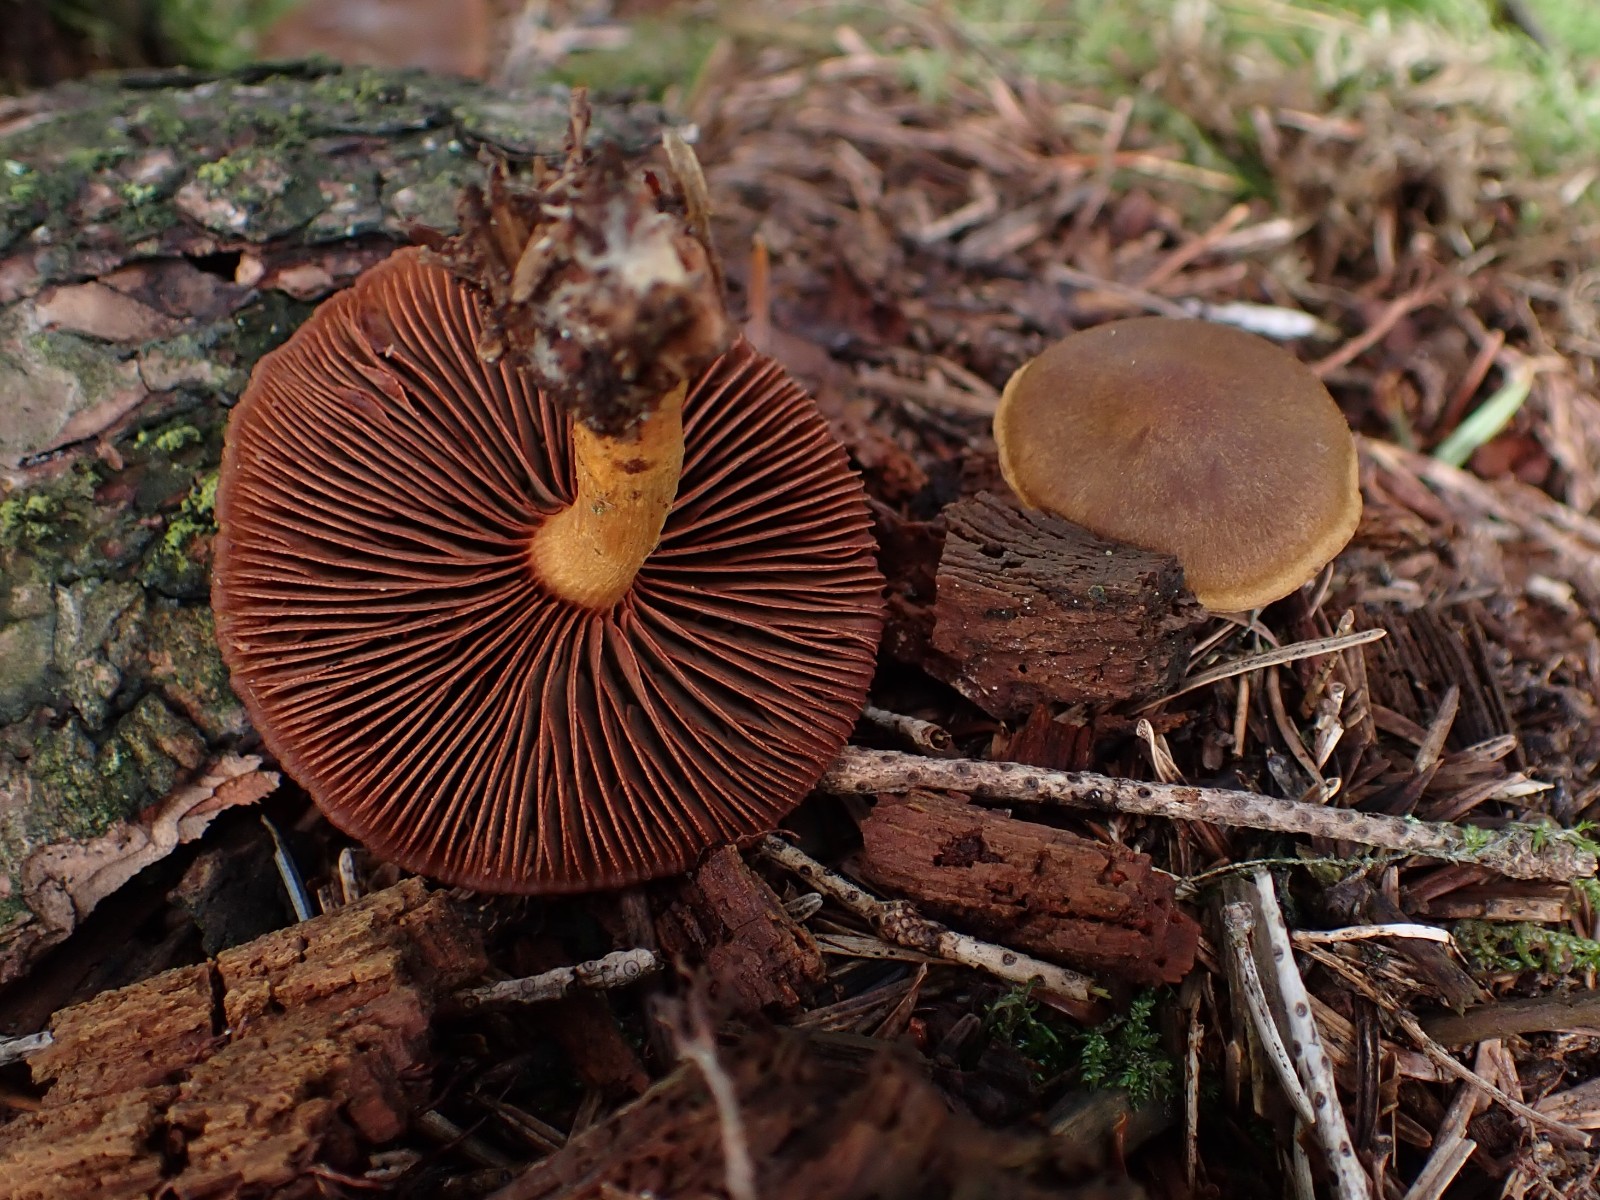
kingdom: Fungi
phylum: Basidiomycota
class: Agaricomycetes
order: Agaricales
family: Cortinariaceae
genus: Cortinarius
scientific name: Cortinarius
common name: cinnoberbladet slørhat
